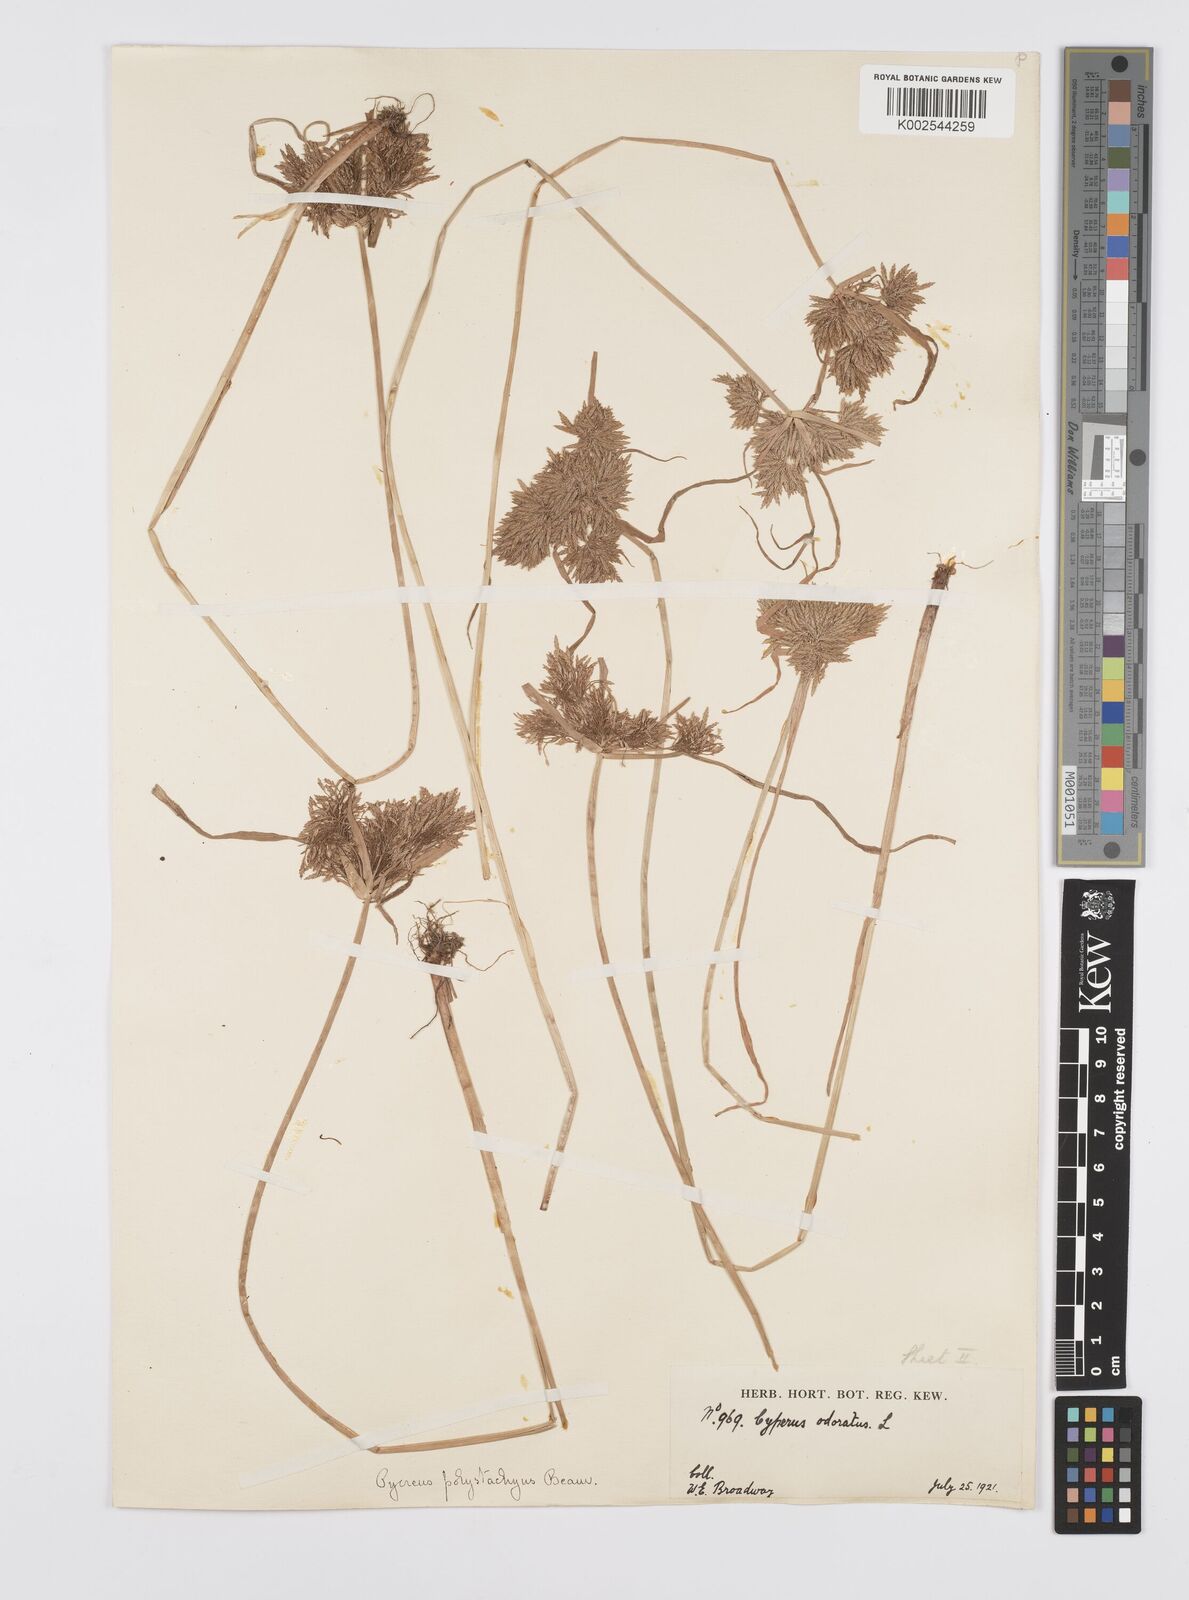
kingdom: Plantae
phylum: Tracheophyta
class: Liliopsida
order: Poales
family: Cyperaceae
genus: Cyperus
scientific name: Cyperus polystachyos
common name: Bunchy flat sedge
